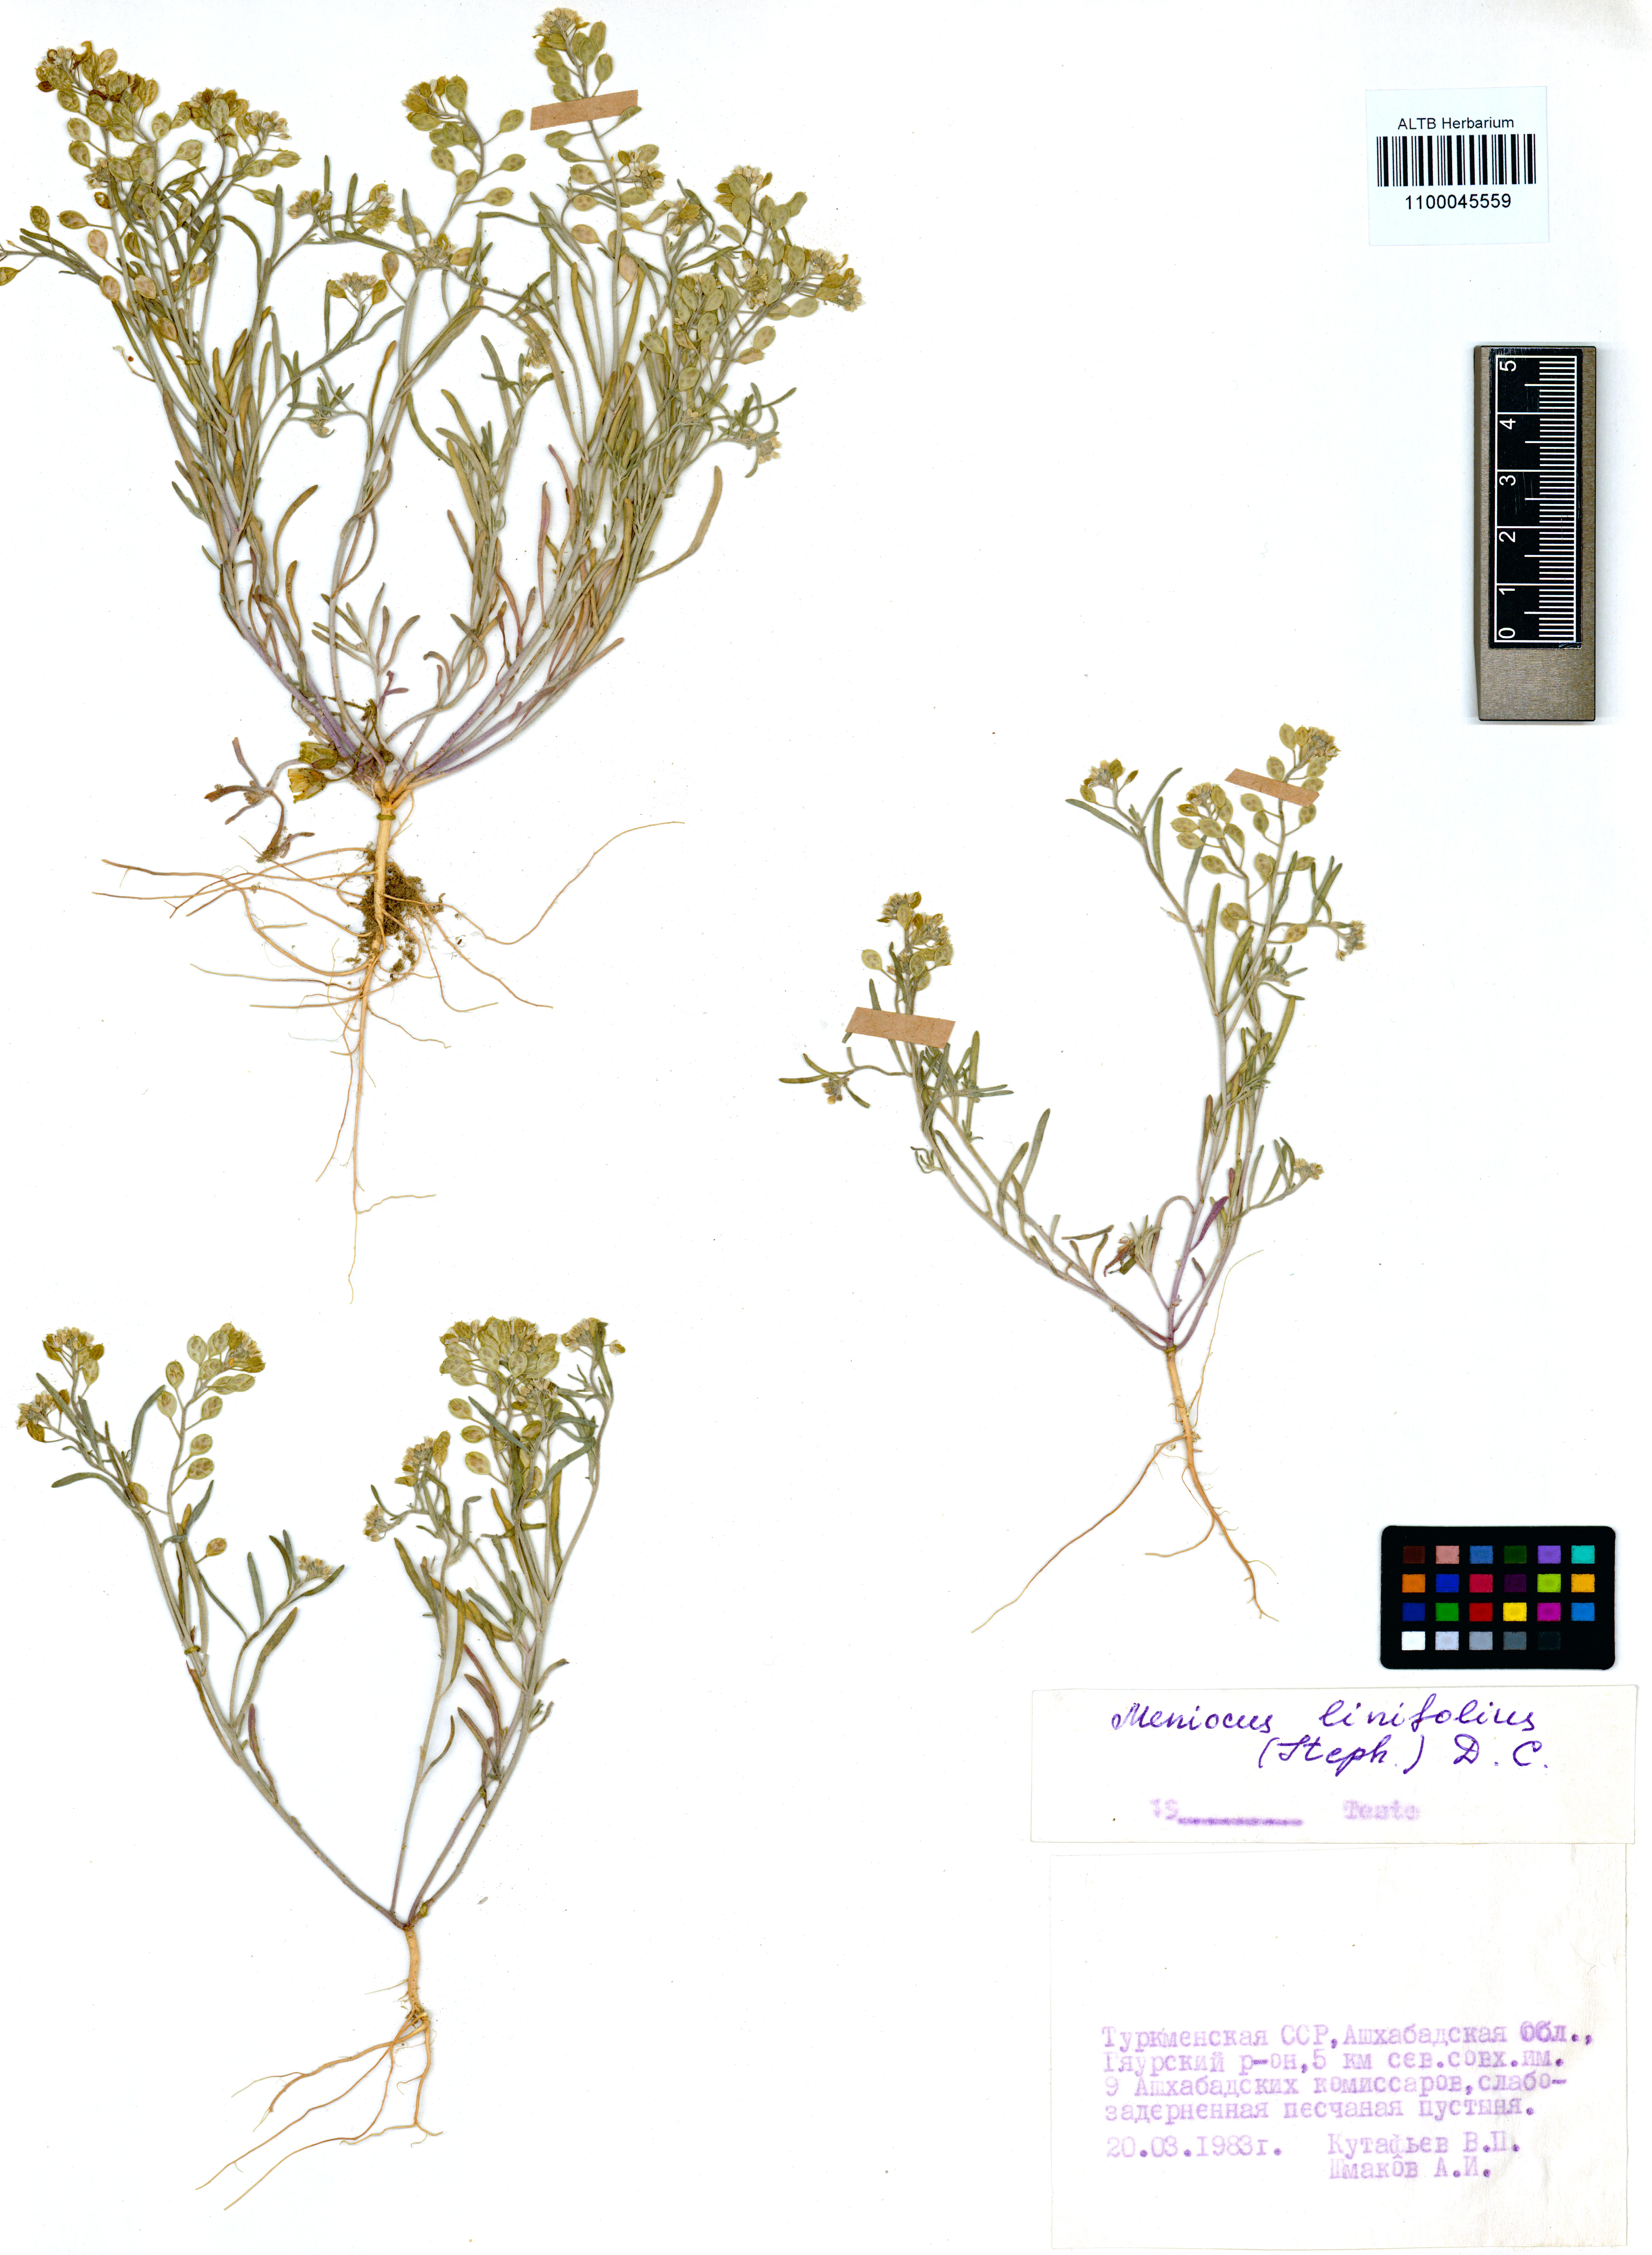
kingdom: Plantae
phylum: Tracheophyta
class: Magnoliopsida
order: Brassicales
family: Brassicaceae
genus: Meniocus
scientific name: Meniocus linifolius
